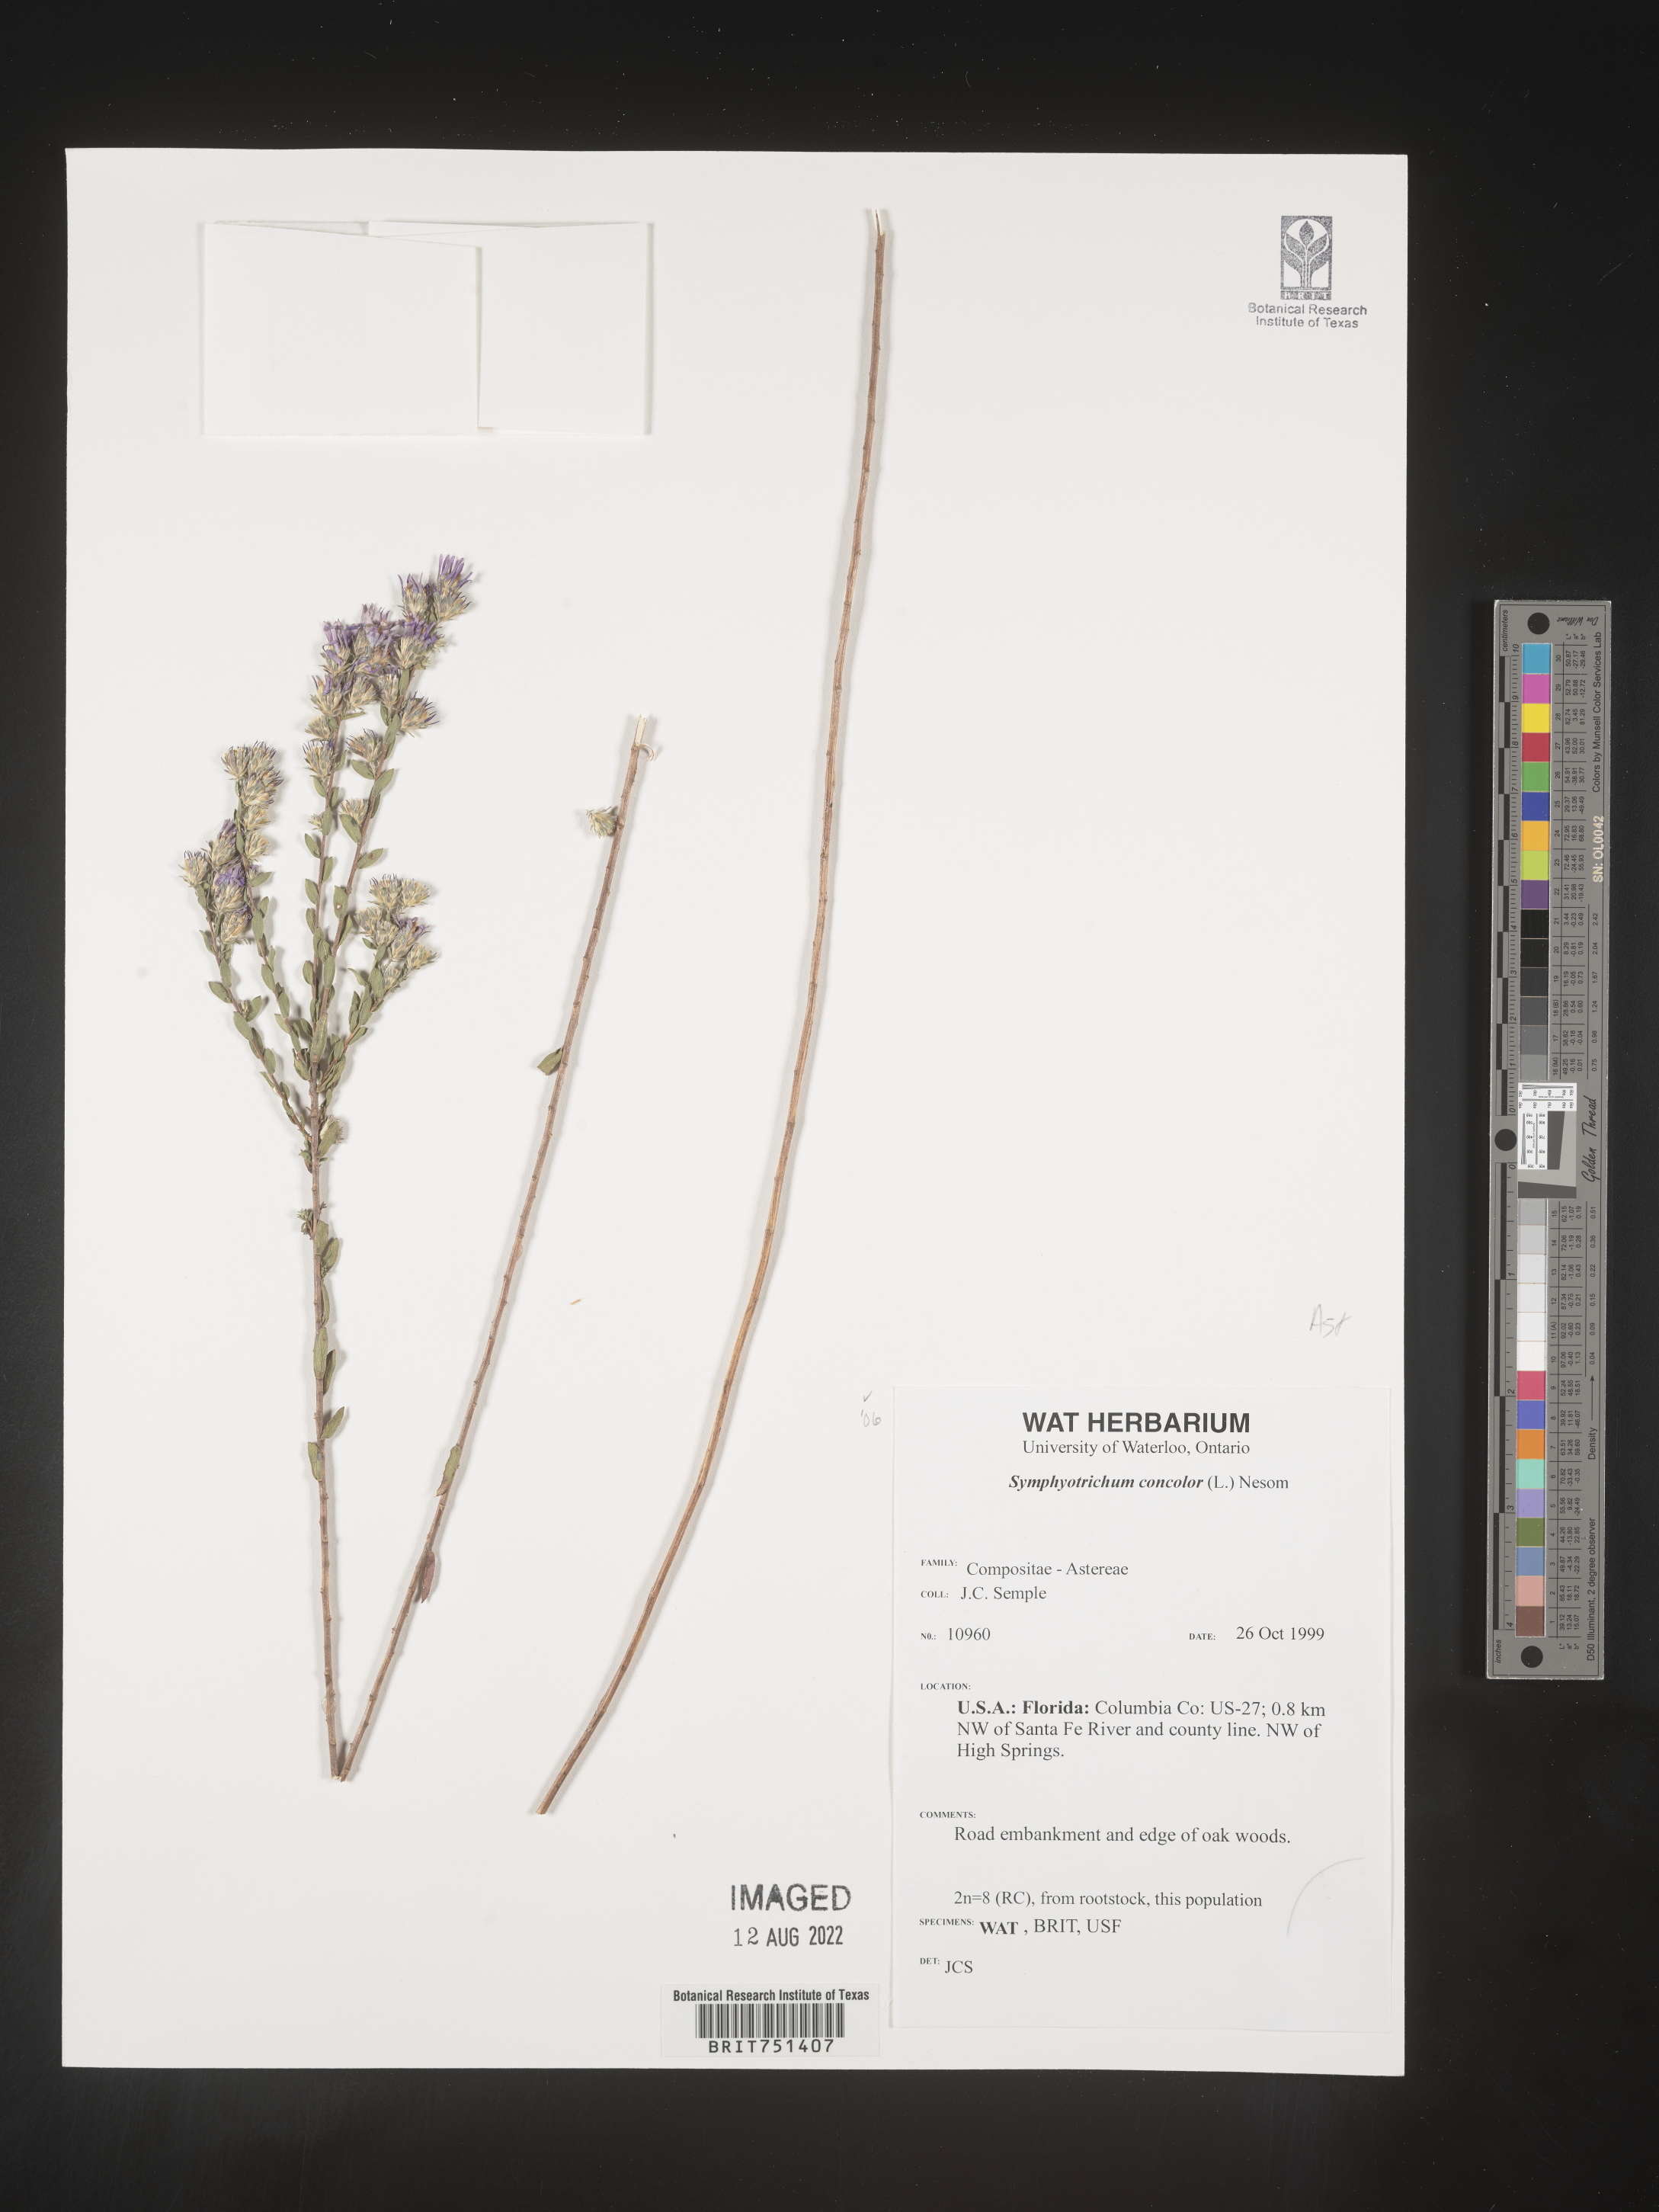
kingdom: Plantae
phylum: Tracheophyta
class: Magnoliopsida
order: Asterales
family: Asteraceae
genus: Symphyotrichum
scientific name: Symphyotrichum concolor
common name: Eastern silver aster
